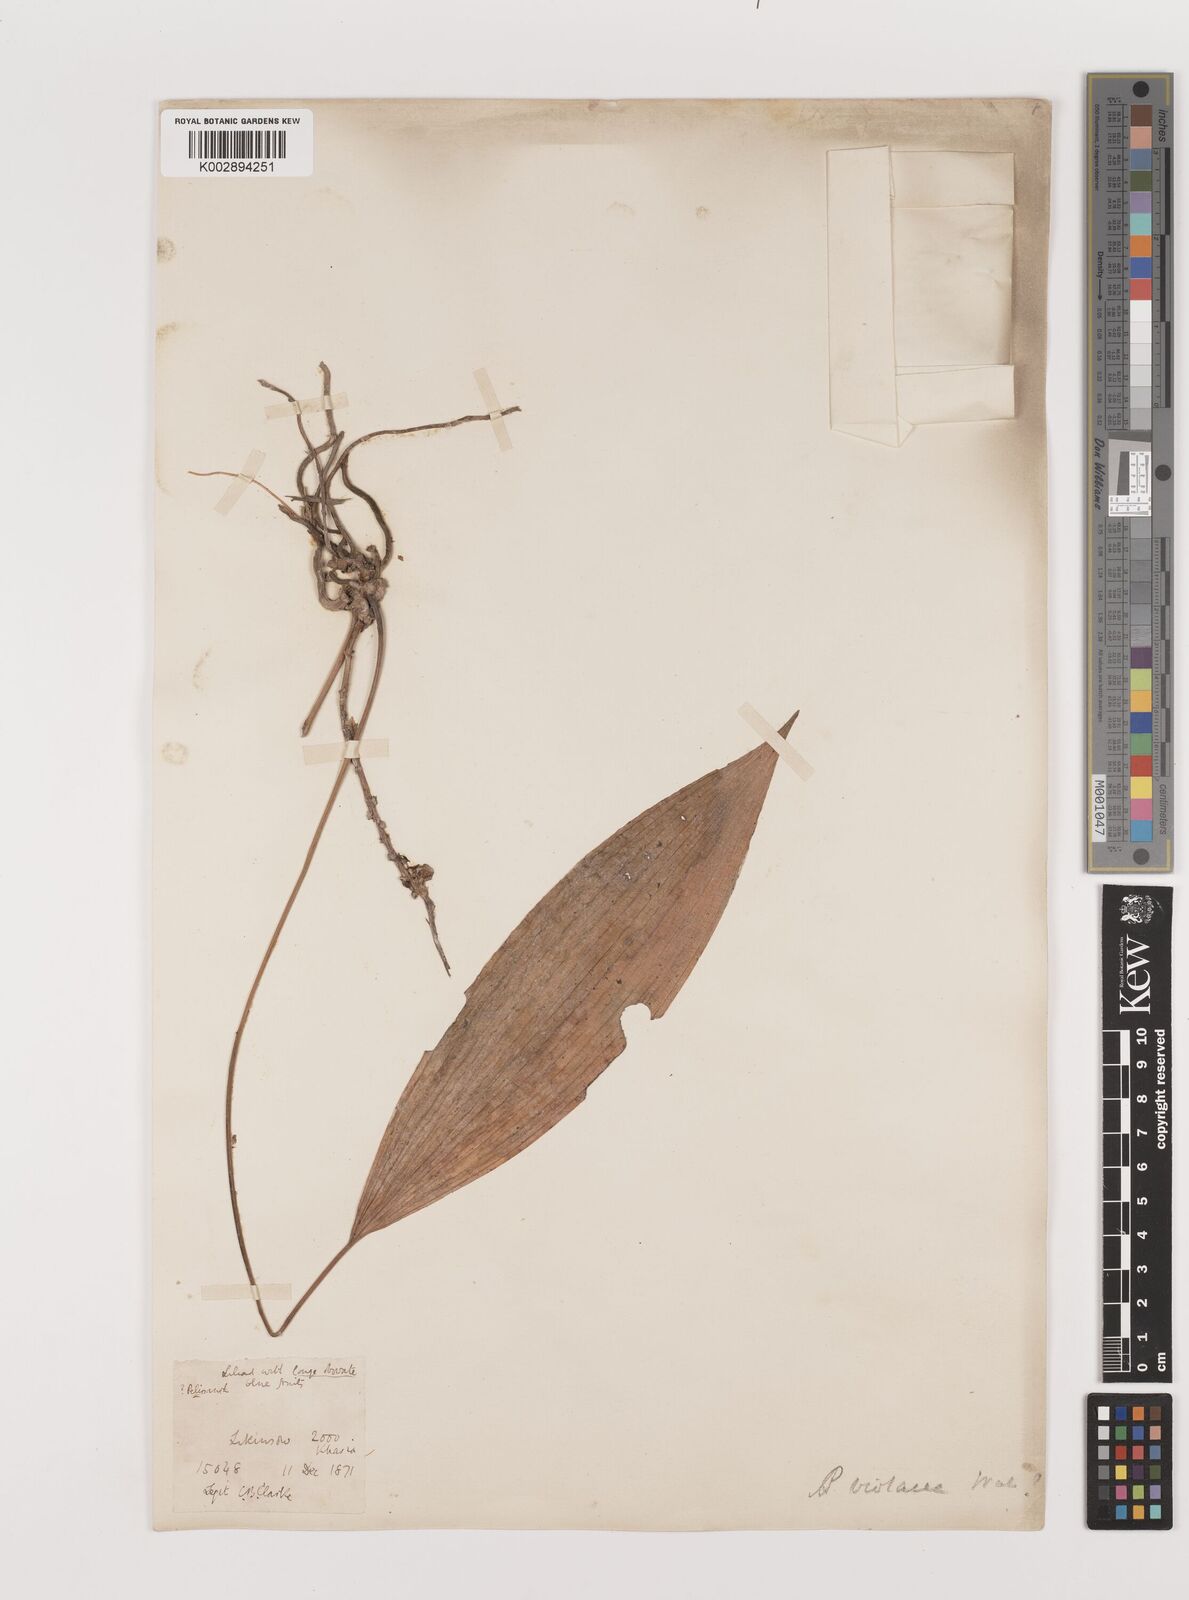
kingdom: Plantae
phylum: Tracheophyta
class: Liliopsida
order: Asparagales
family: Asparagaceae
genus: Peliosanthes
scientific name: Peliosanthes teta
